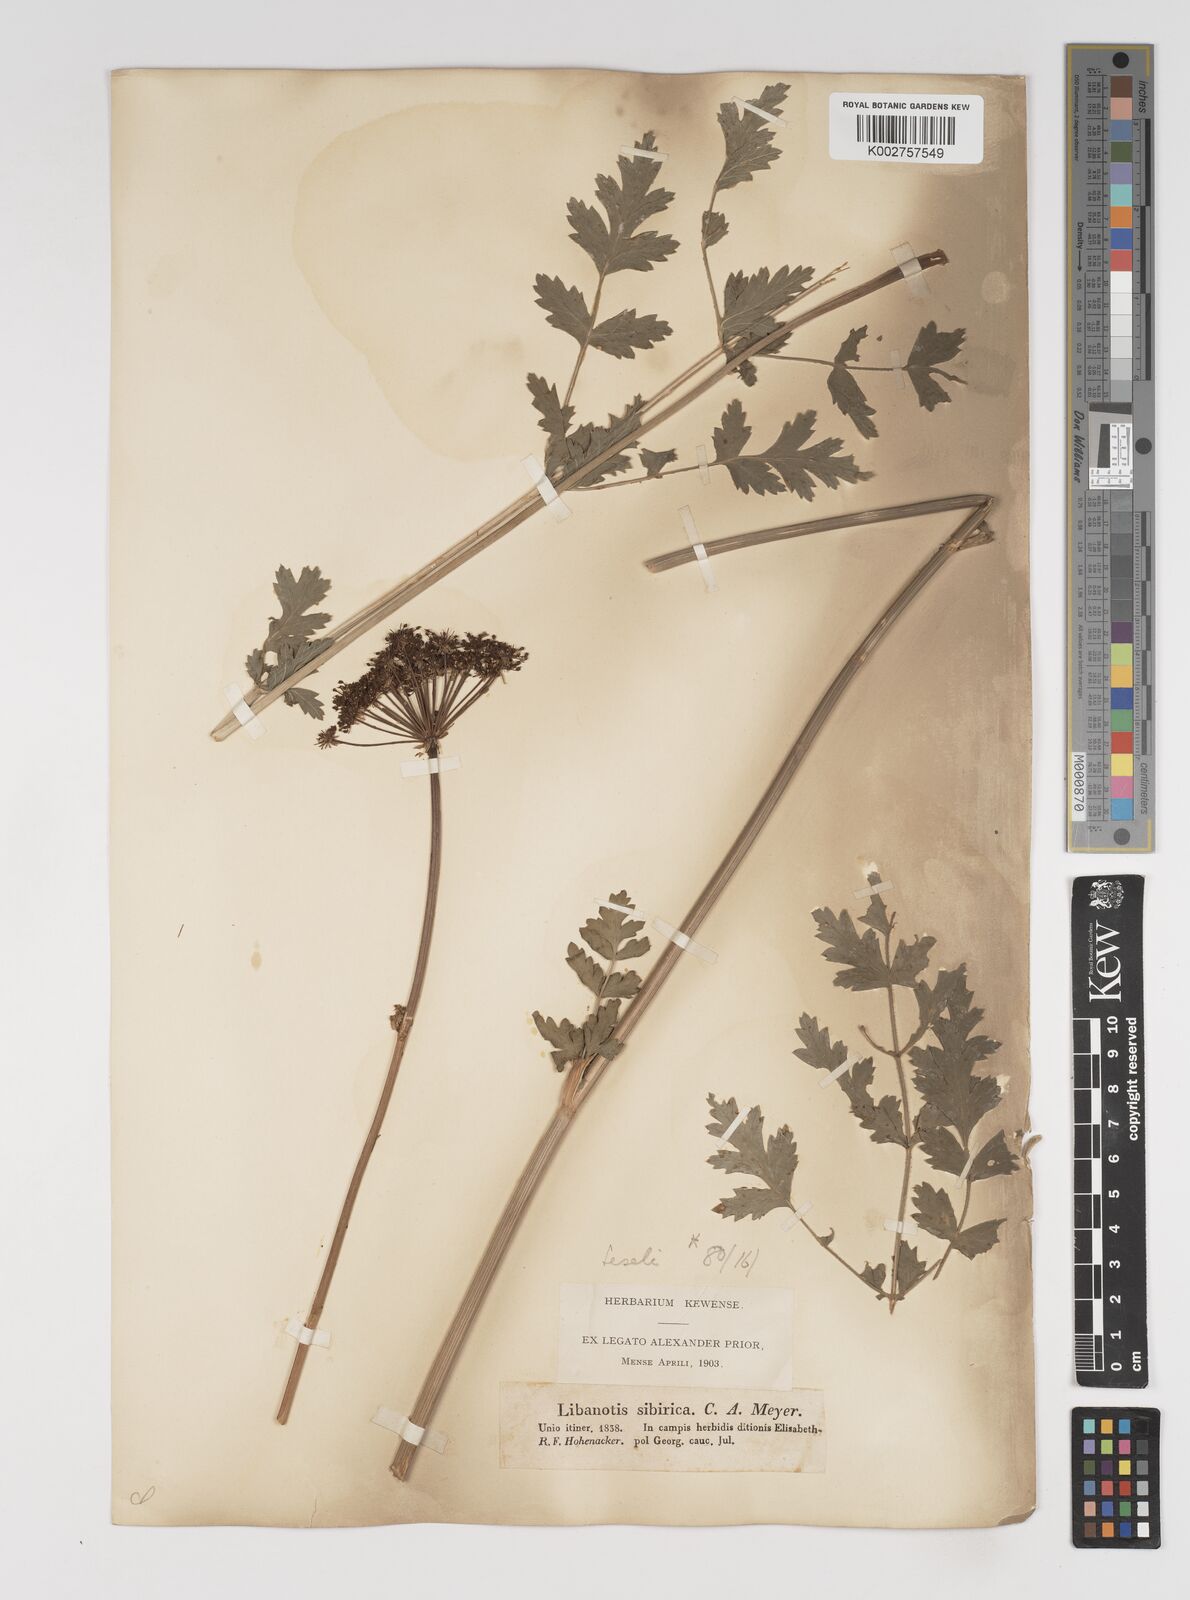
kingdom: Plantae
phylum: Tracheophyta
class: Magnoliopsida
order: Apiales
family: Apiaceae
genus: Seseli
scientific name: Seseli libanotis
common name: Mooncarrot
